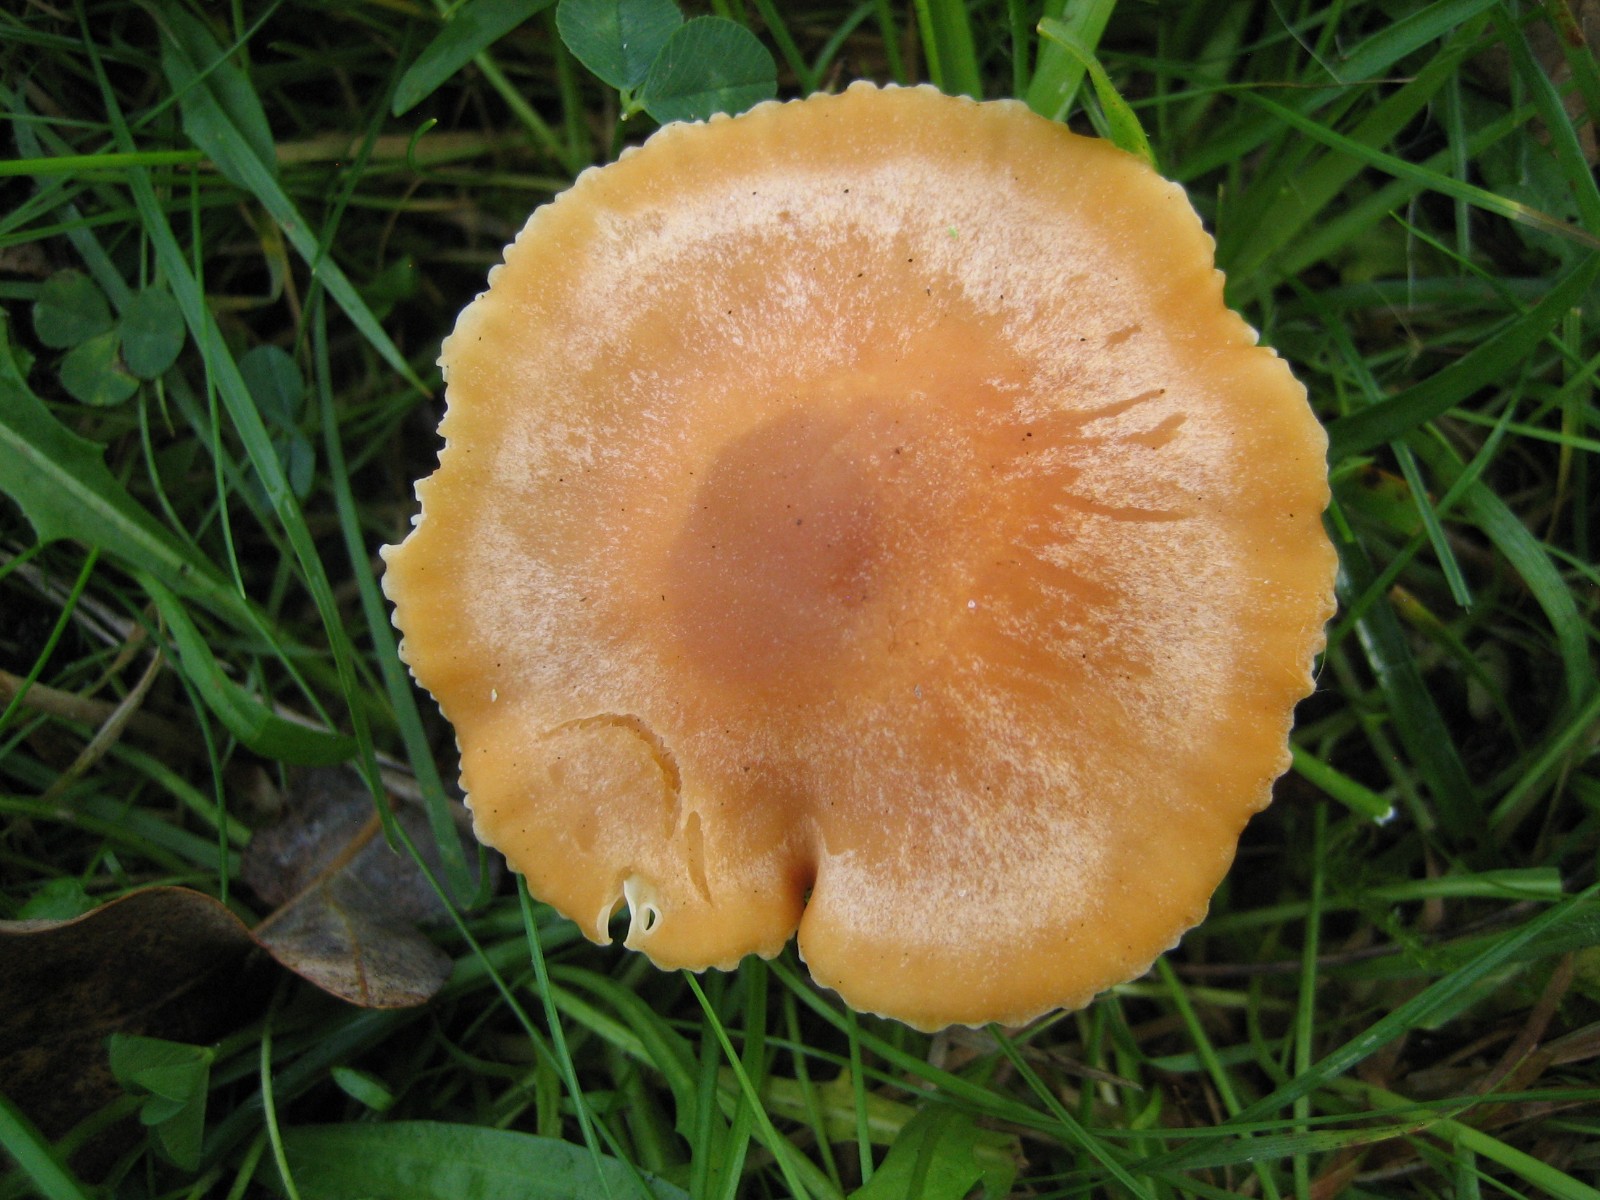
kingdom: Fungi
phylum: Basidiomycota
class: Agaricomycetes
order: Agaricales
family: Hygrophoraceae
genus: Cuphophyllus
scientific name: Cuphophyllus pratensis
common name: eng-vokshat
